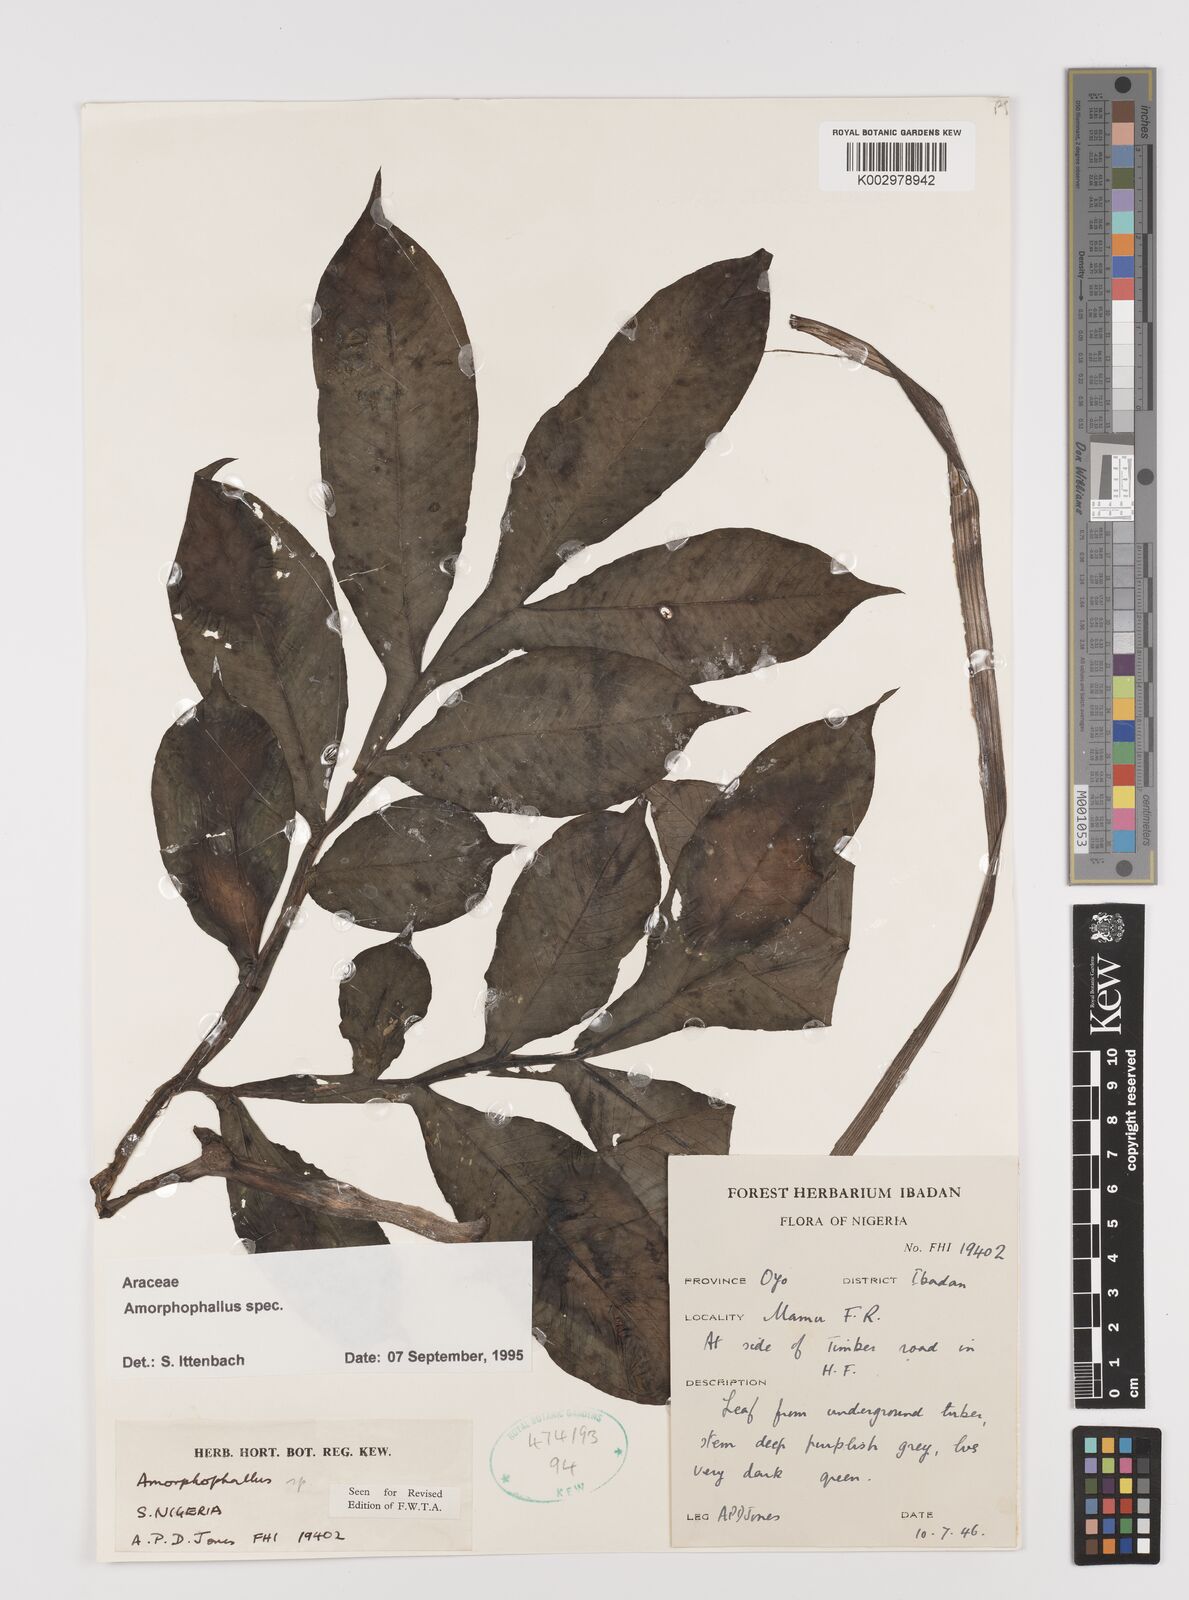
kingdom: Plantae
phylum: Tracheophyta
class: Liliopsida
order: Alismatales
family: Araceae
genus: Amorphophallus
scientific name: Amorphophallus
